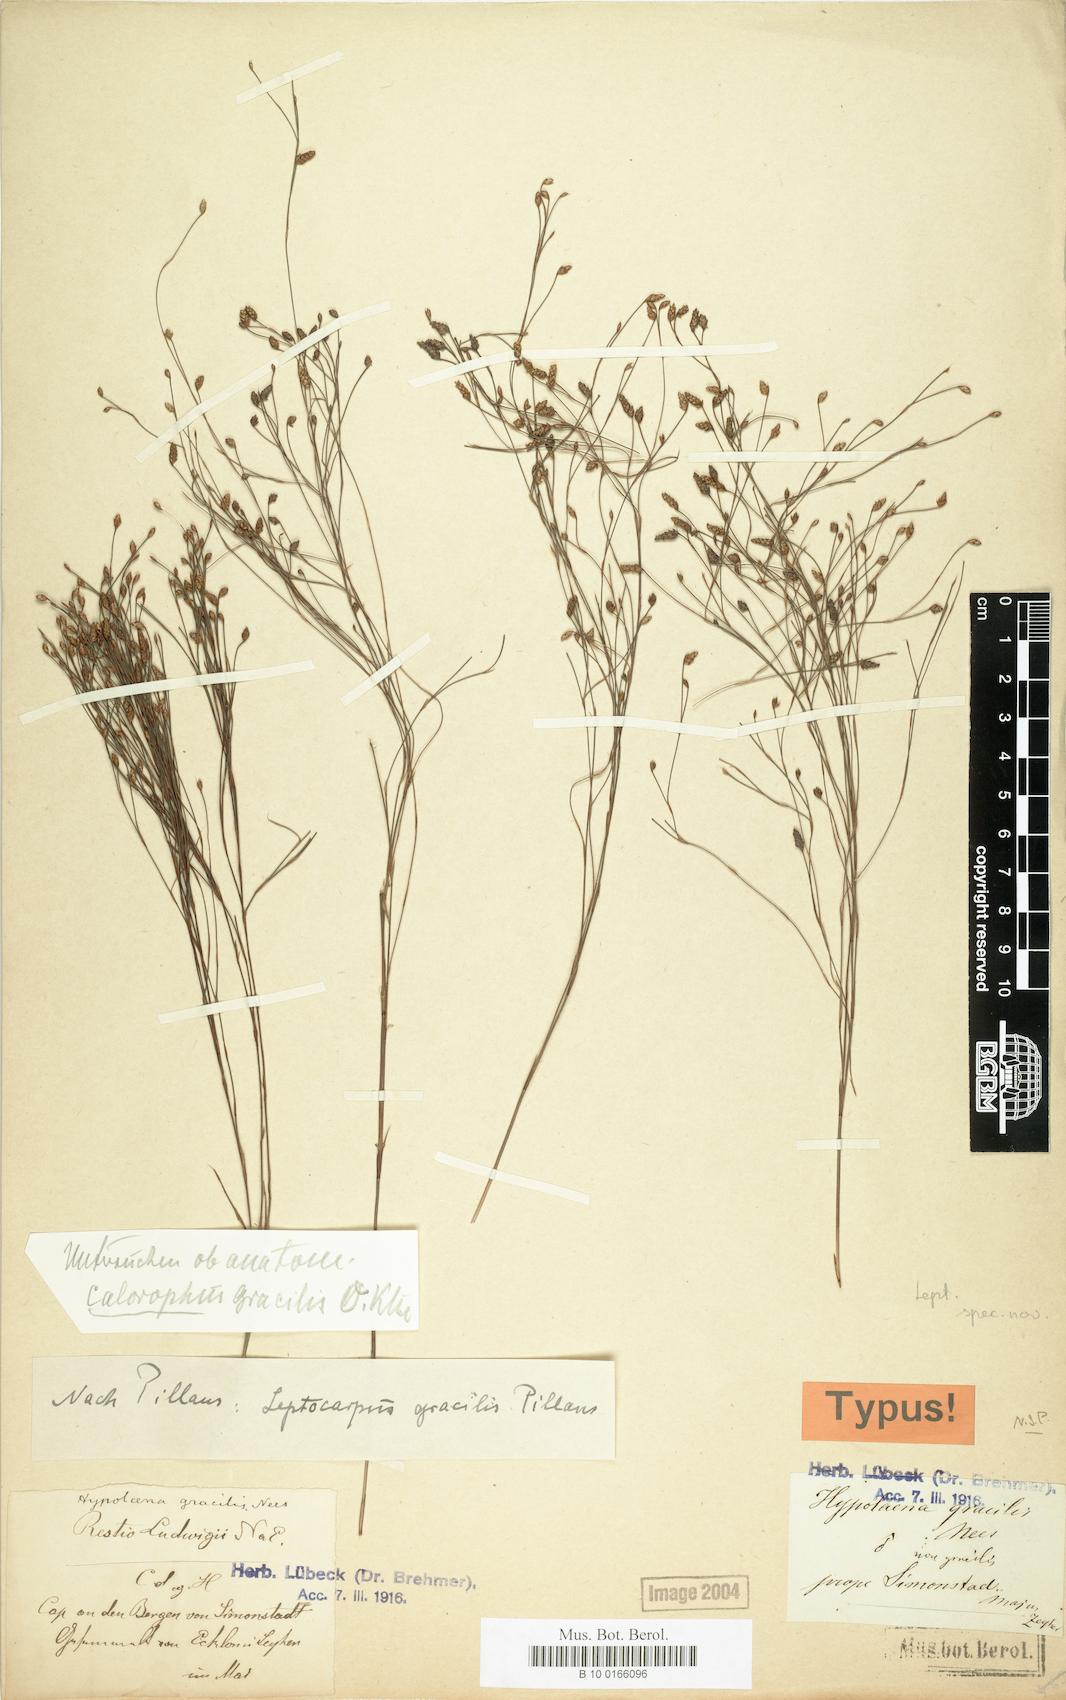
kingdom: Plantae
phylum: Tracheophyta
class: Liliopsida
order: Poales
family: Restionaceae
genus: Restio
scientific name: Restio ramosissimus
